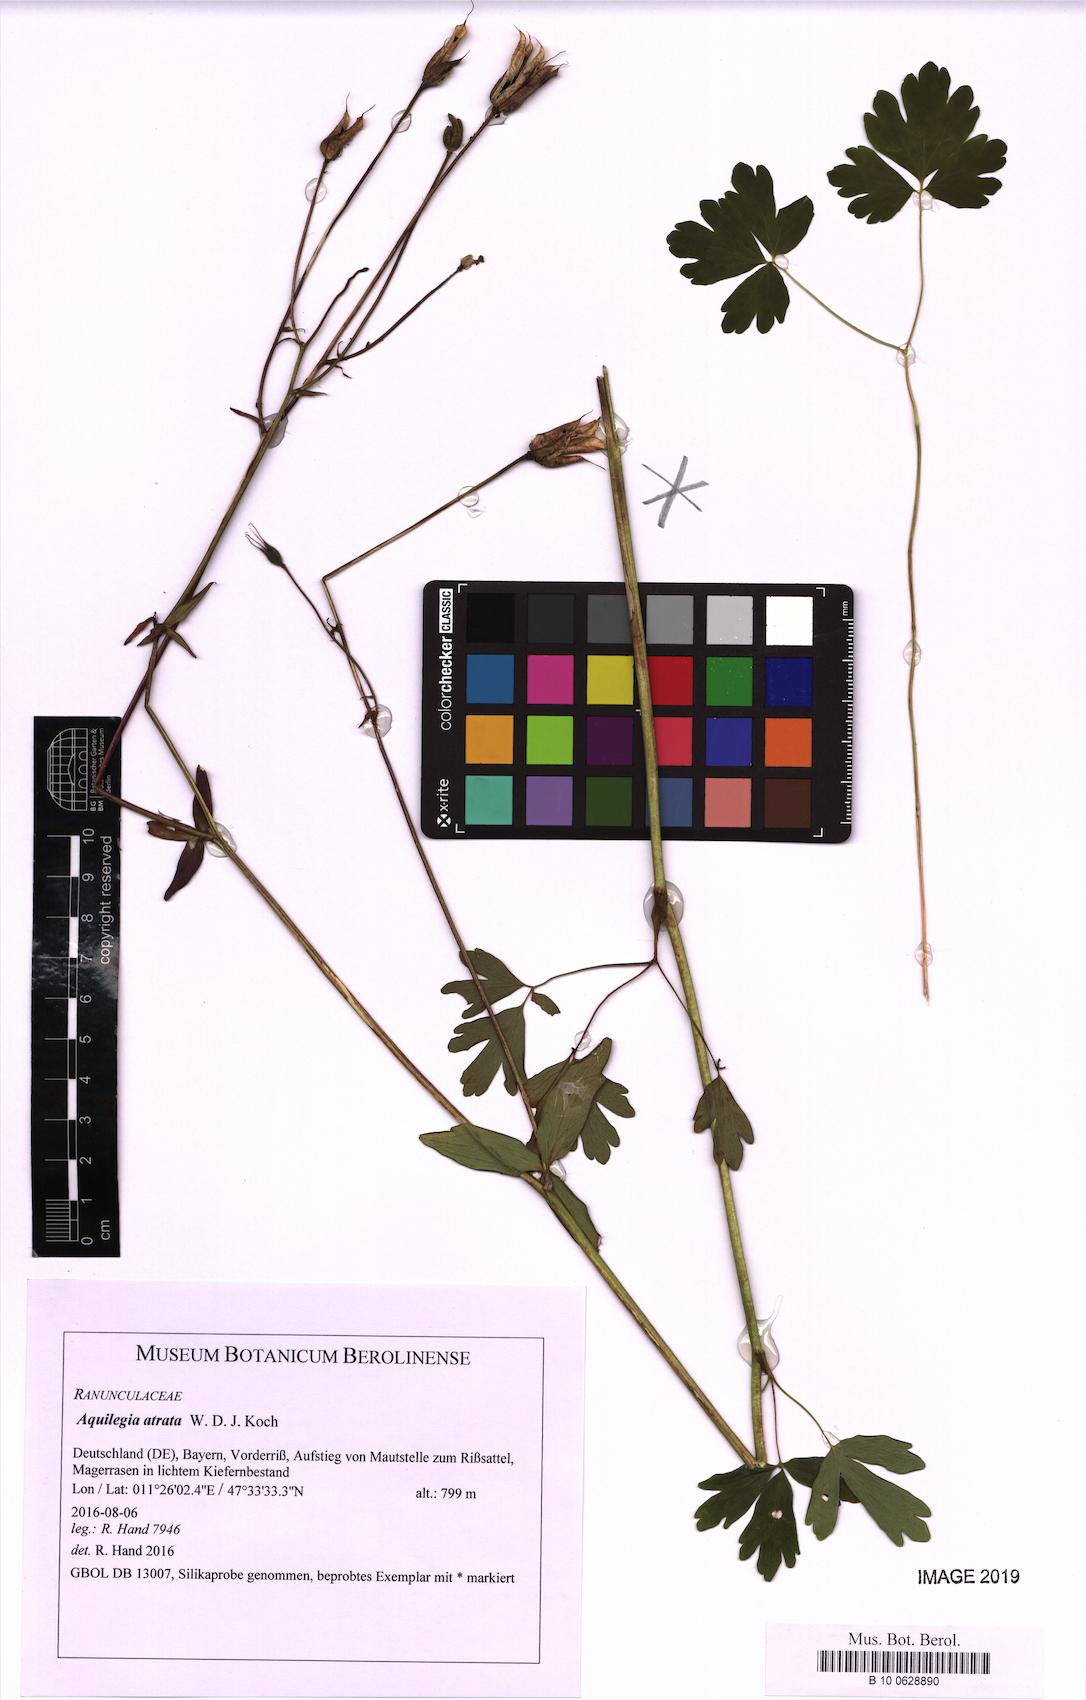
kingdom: Plantae
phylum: Tracheophyta
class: Magnoliopsida
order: Ranunculales
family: Ranunculaceae
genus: Aquilegia
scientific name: Aquilegia atrata
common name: Dark columbine
